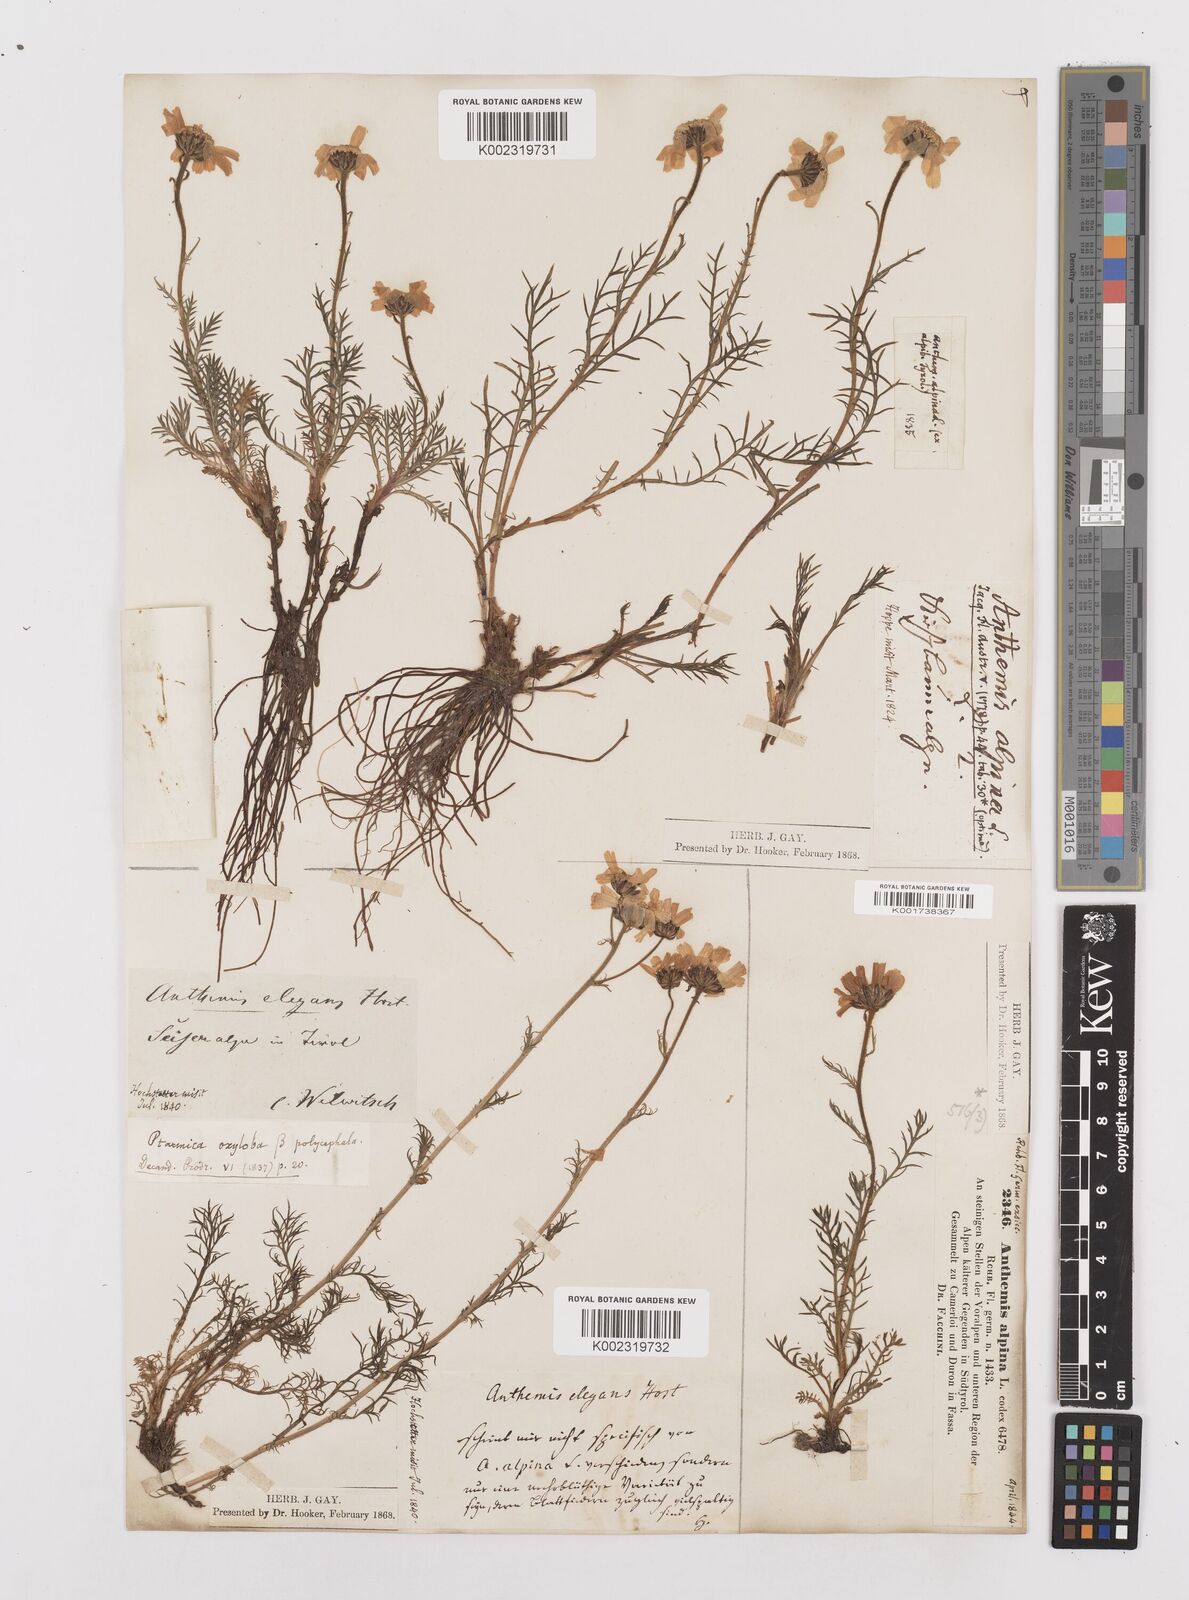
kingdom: Plantae
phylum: Tracheophyta
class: Magnoliopsida
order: Asterales
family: Asteraceae
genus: Achillea
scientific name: Achillea oxyloba
